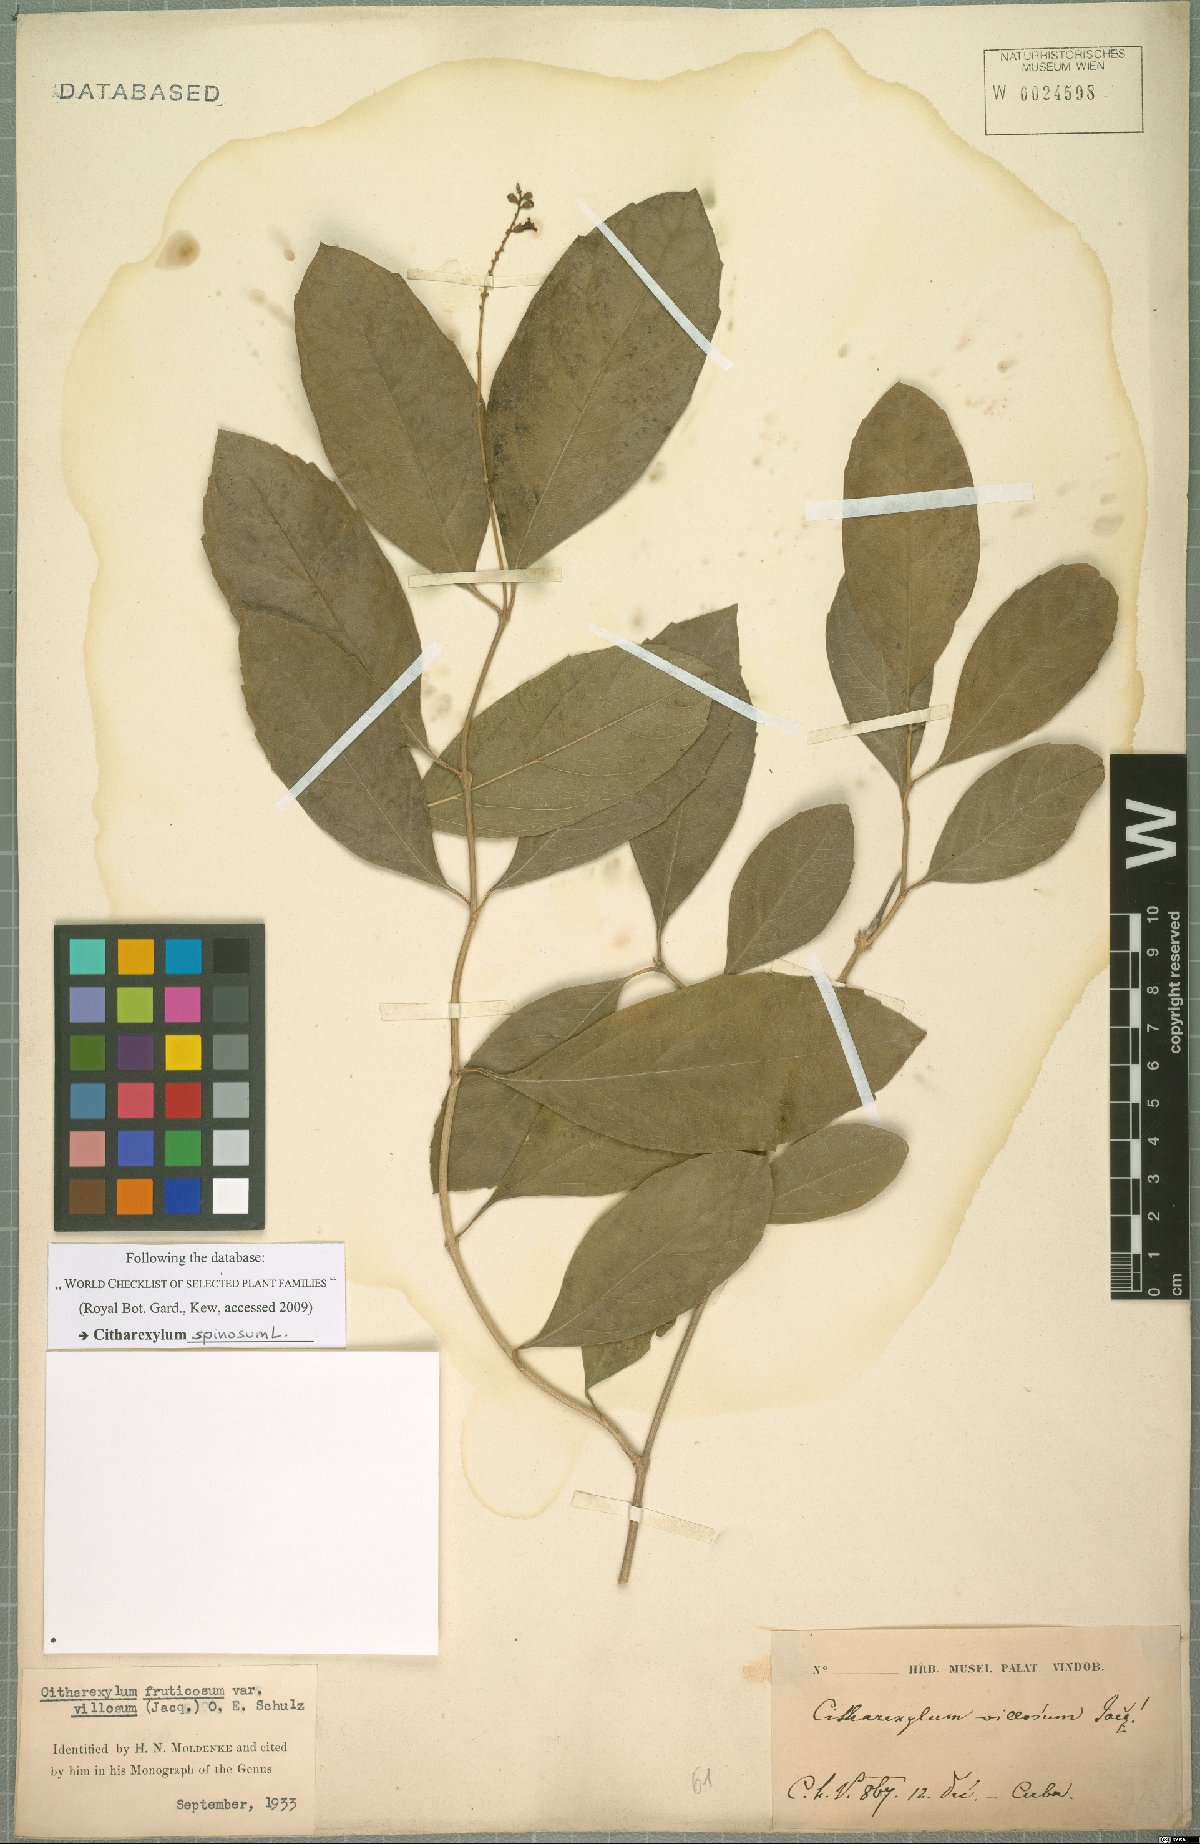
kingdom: Plantae
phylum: Tracheophyta
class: Magnoliopsida
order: Lamiales
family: Verbenaceae
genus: Citharexylum
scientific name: Citharexylum spinosum
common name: Fiddlewood
